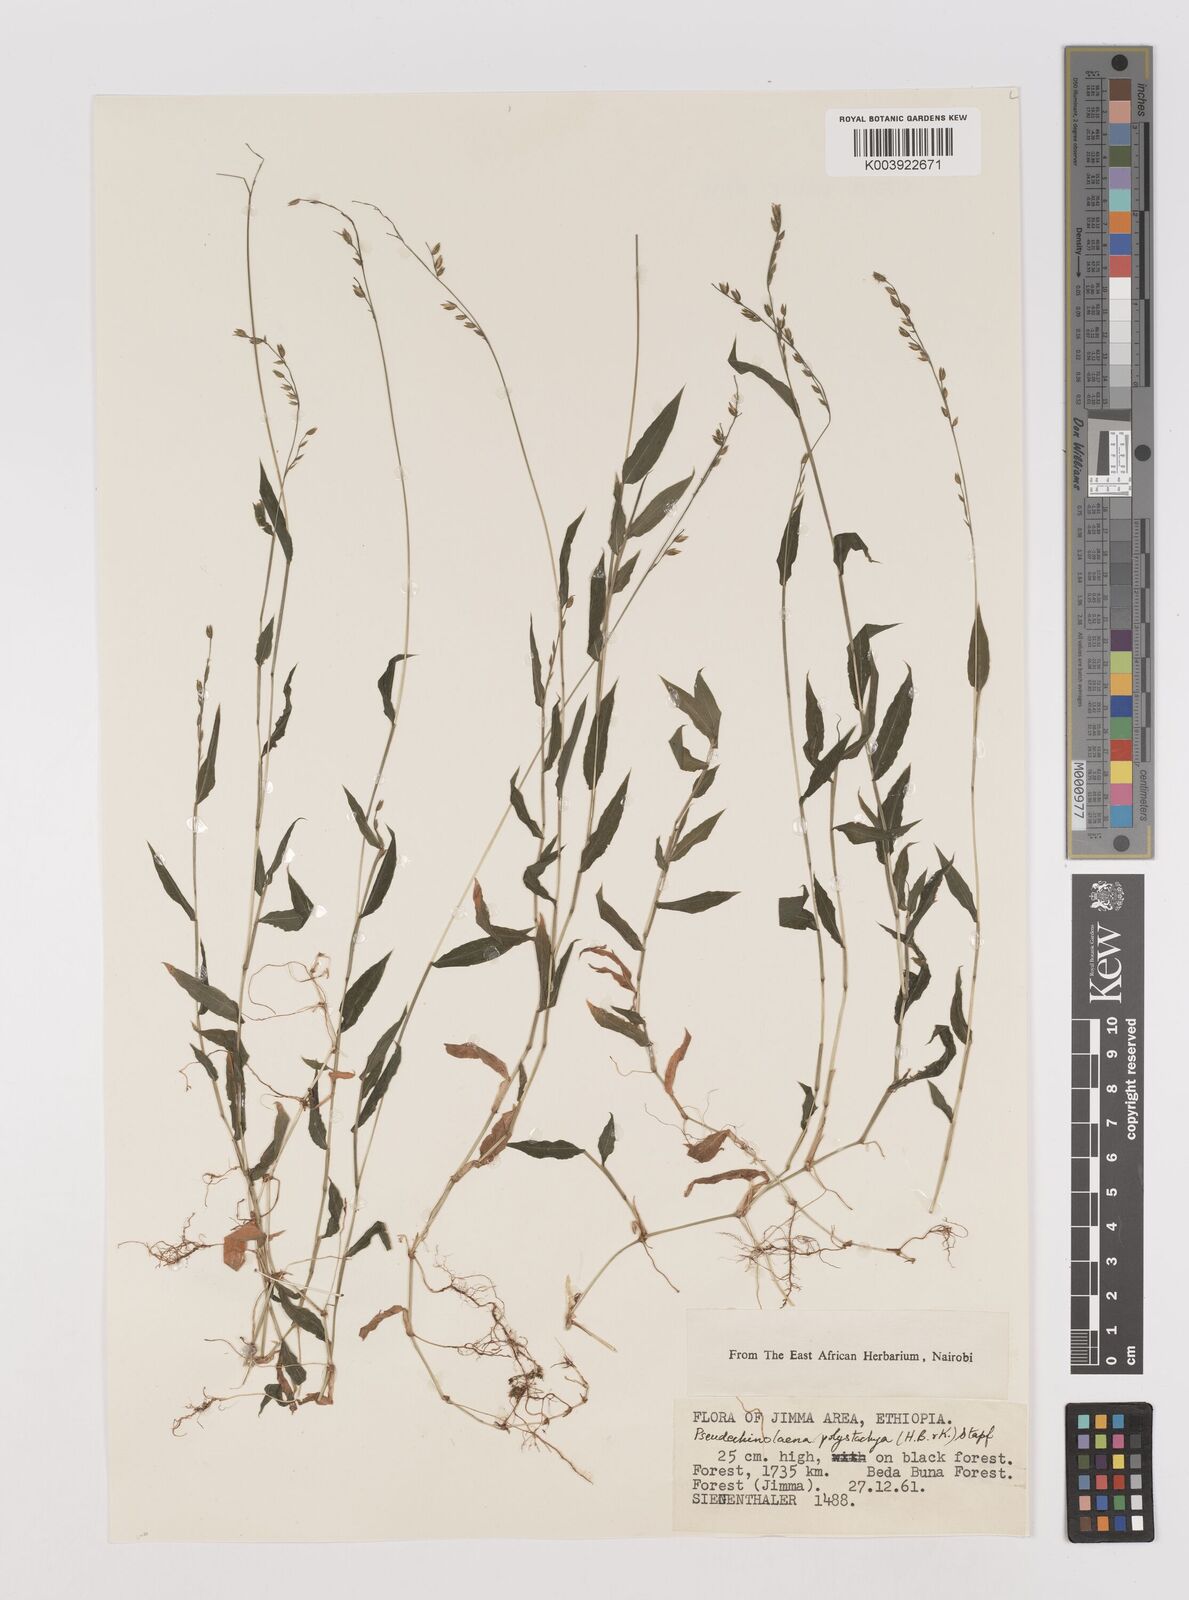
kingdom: Plantae
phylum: Tracheophyta
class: Liliopsida
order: Poales
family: Poaceae
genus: Pseudechinolaena
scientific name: Pseudechinolaena polystachya
